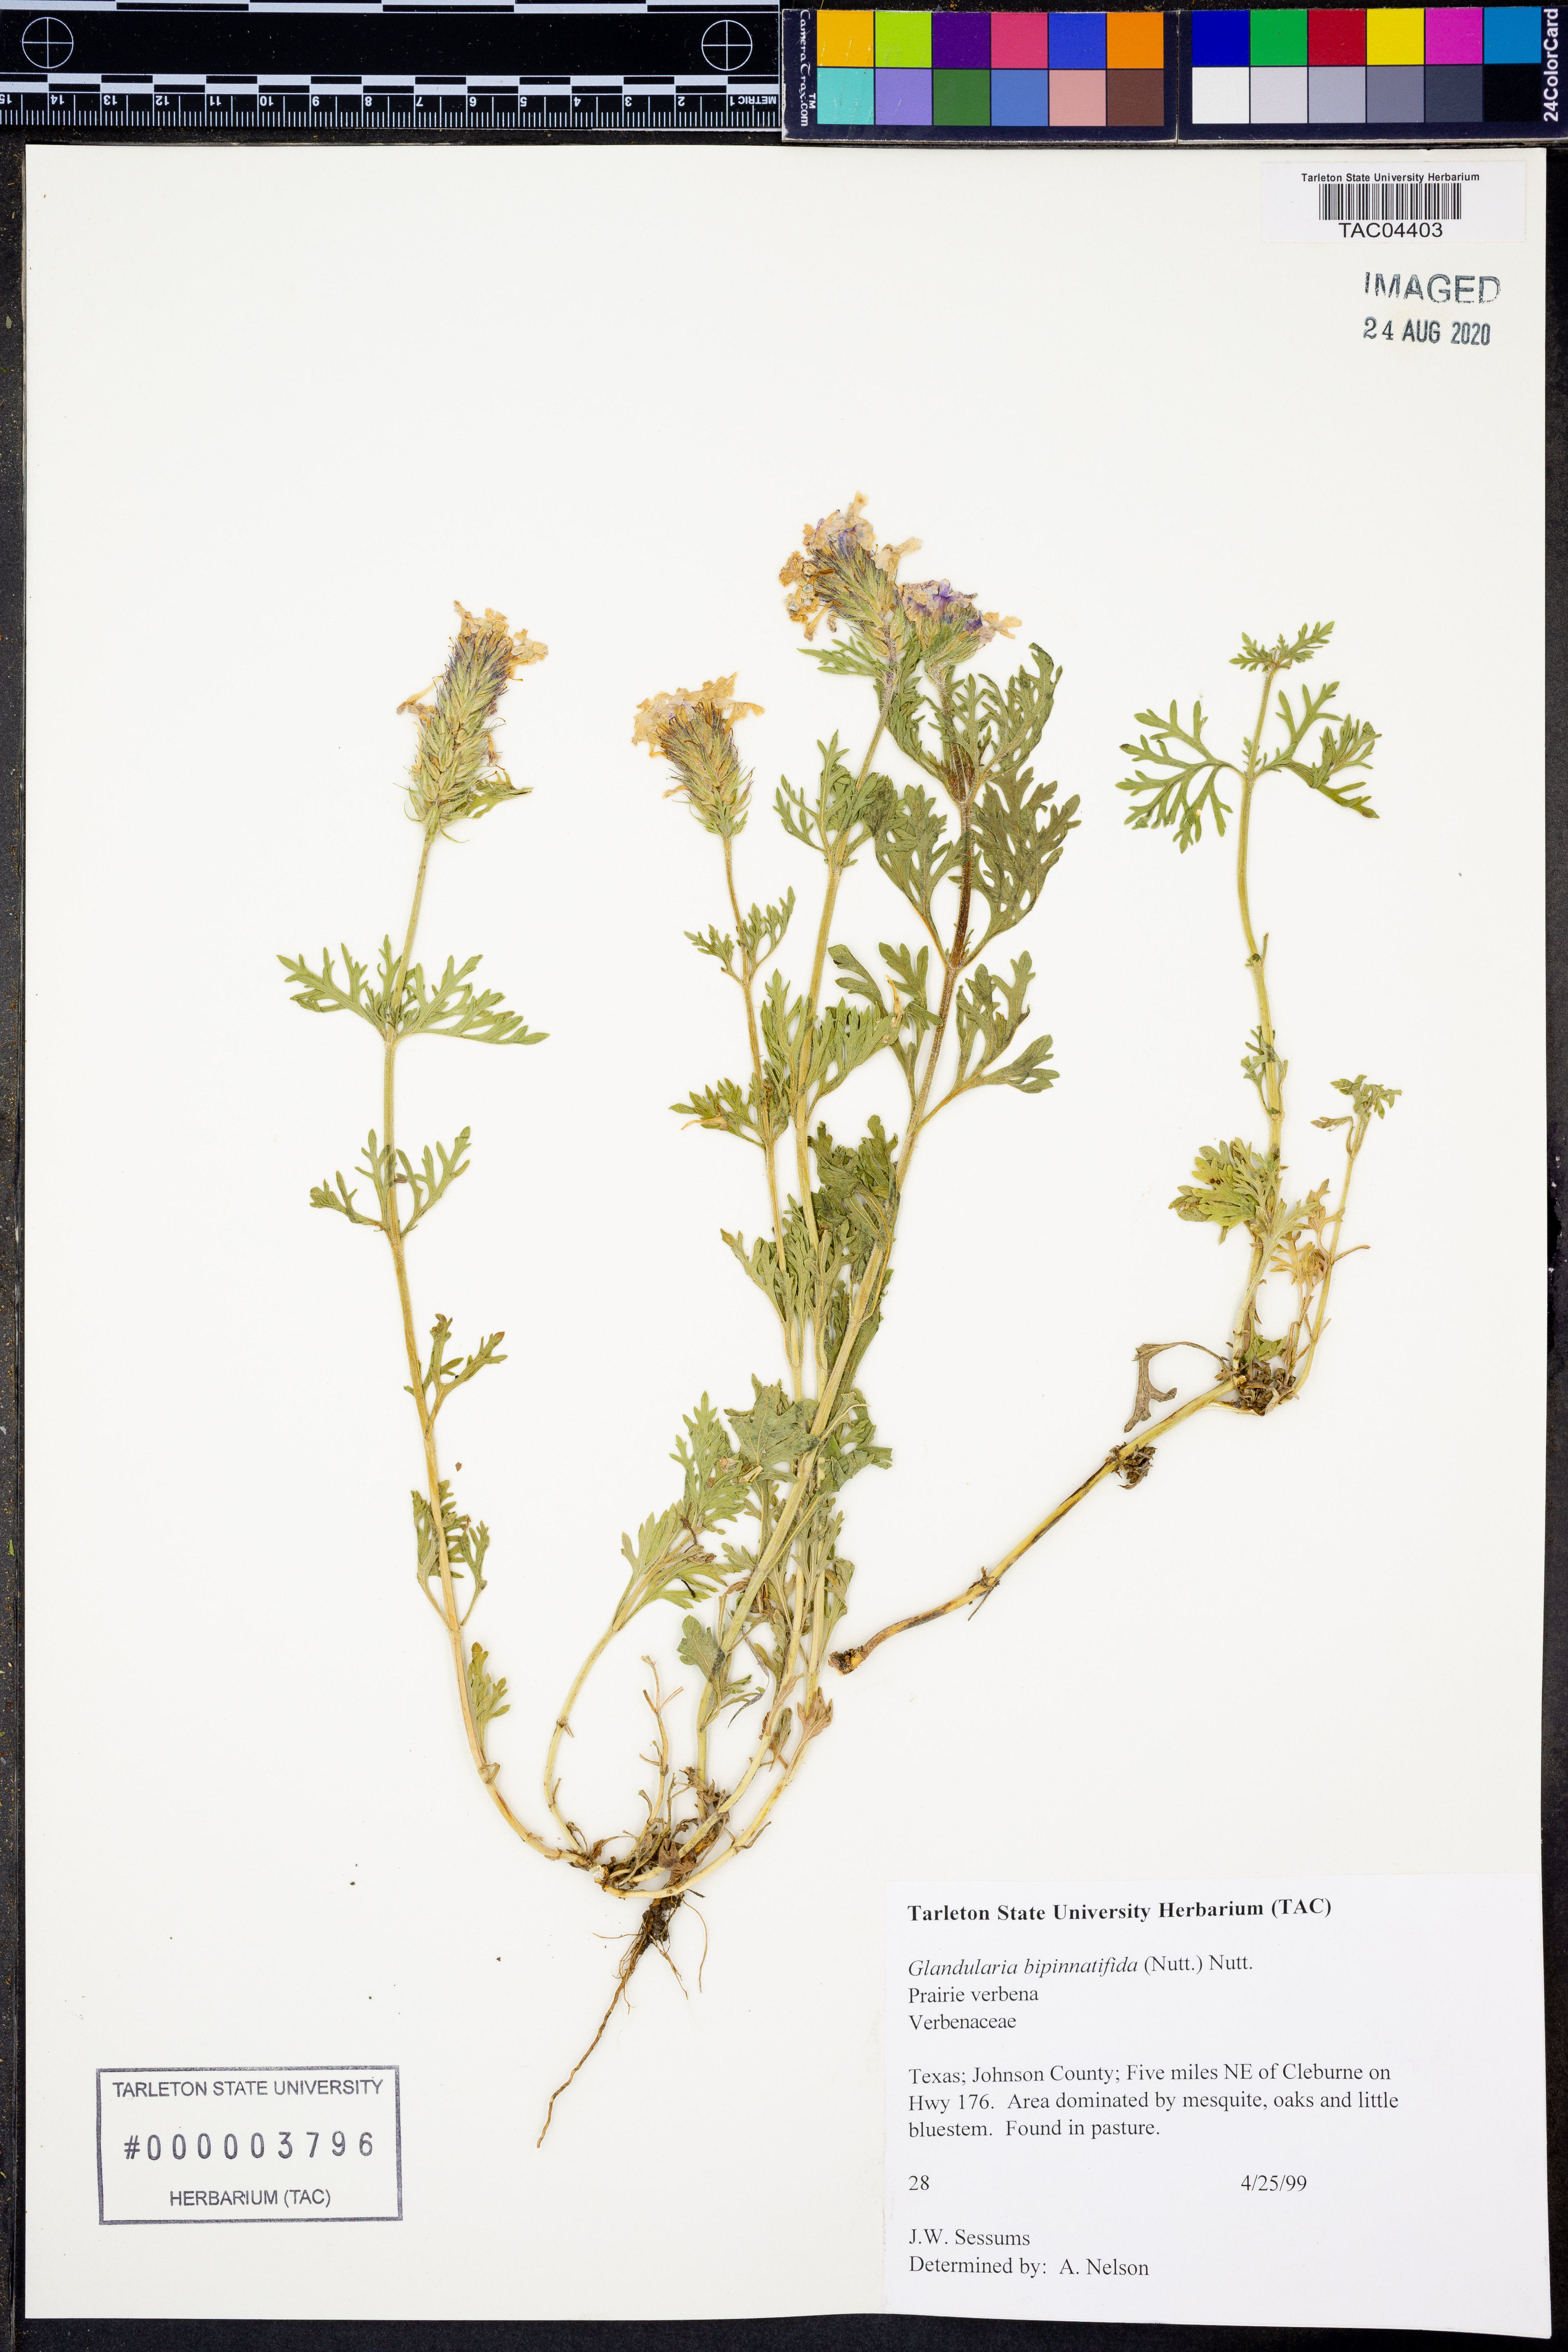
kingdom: Plantae
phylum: Tracheophyta
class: Magnoliopsida
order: Lamiales
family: Verbenaceae
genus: Verbena
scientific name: Verbena bipinnatifida
